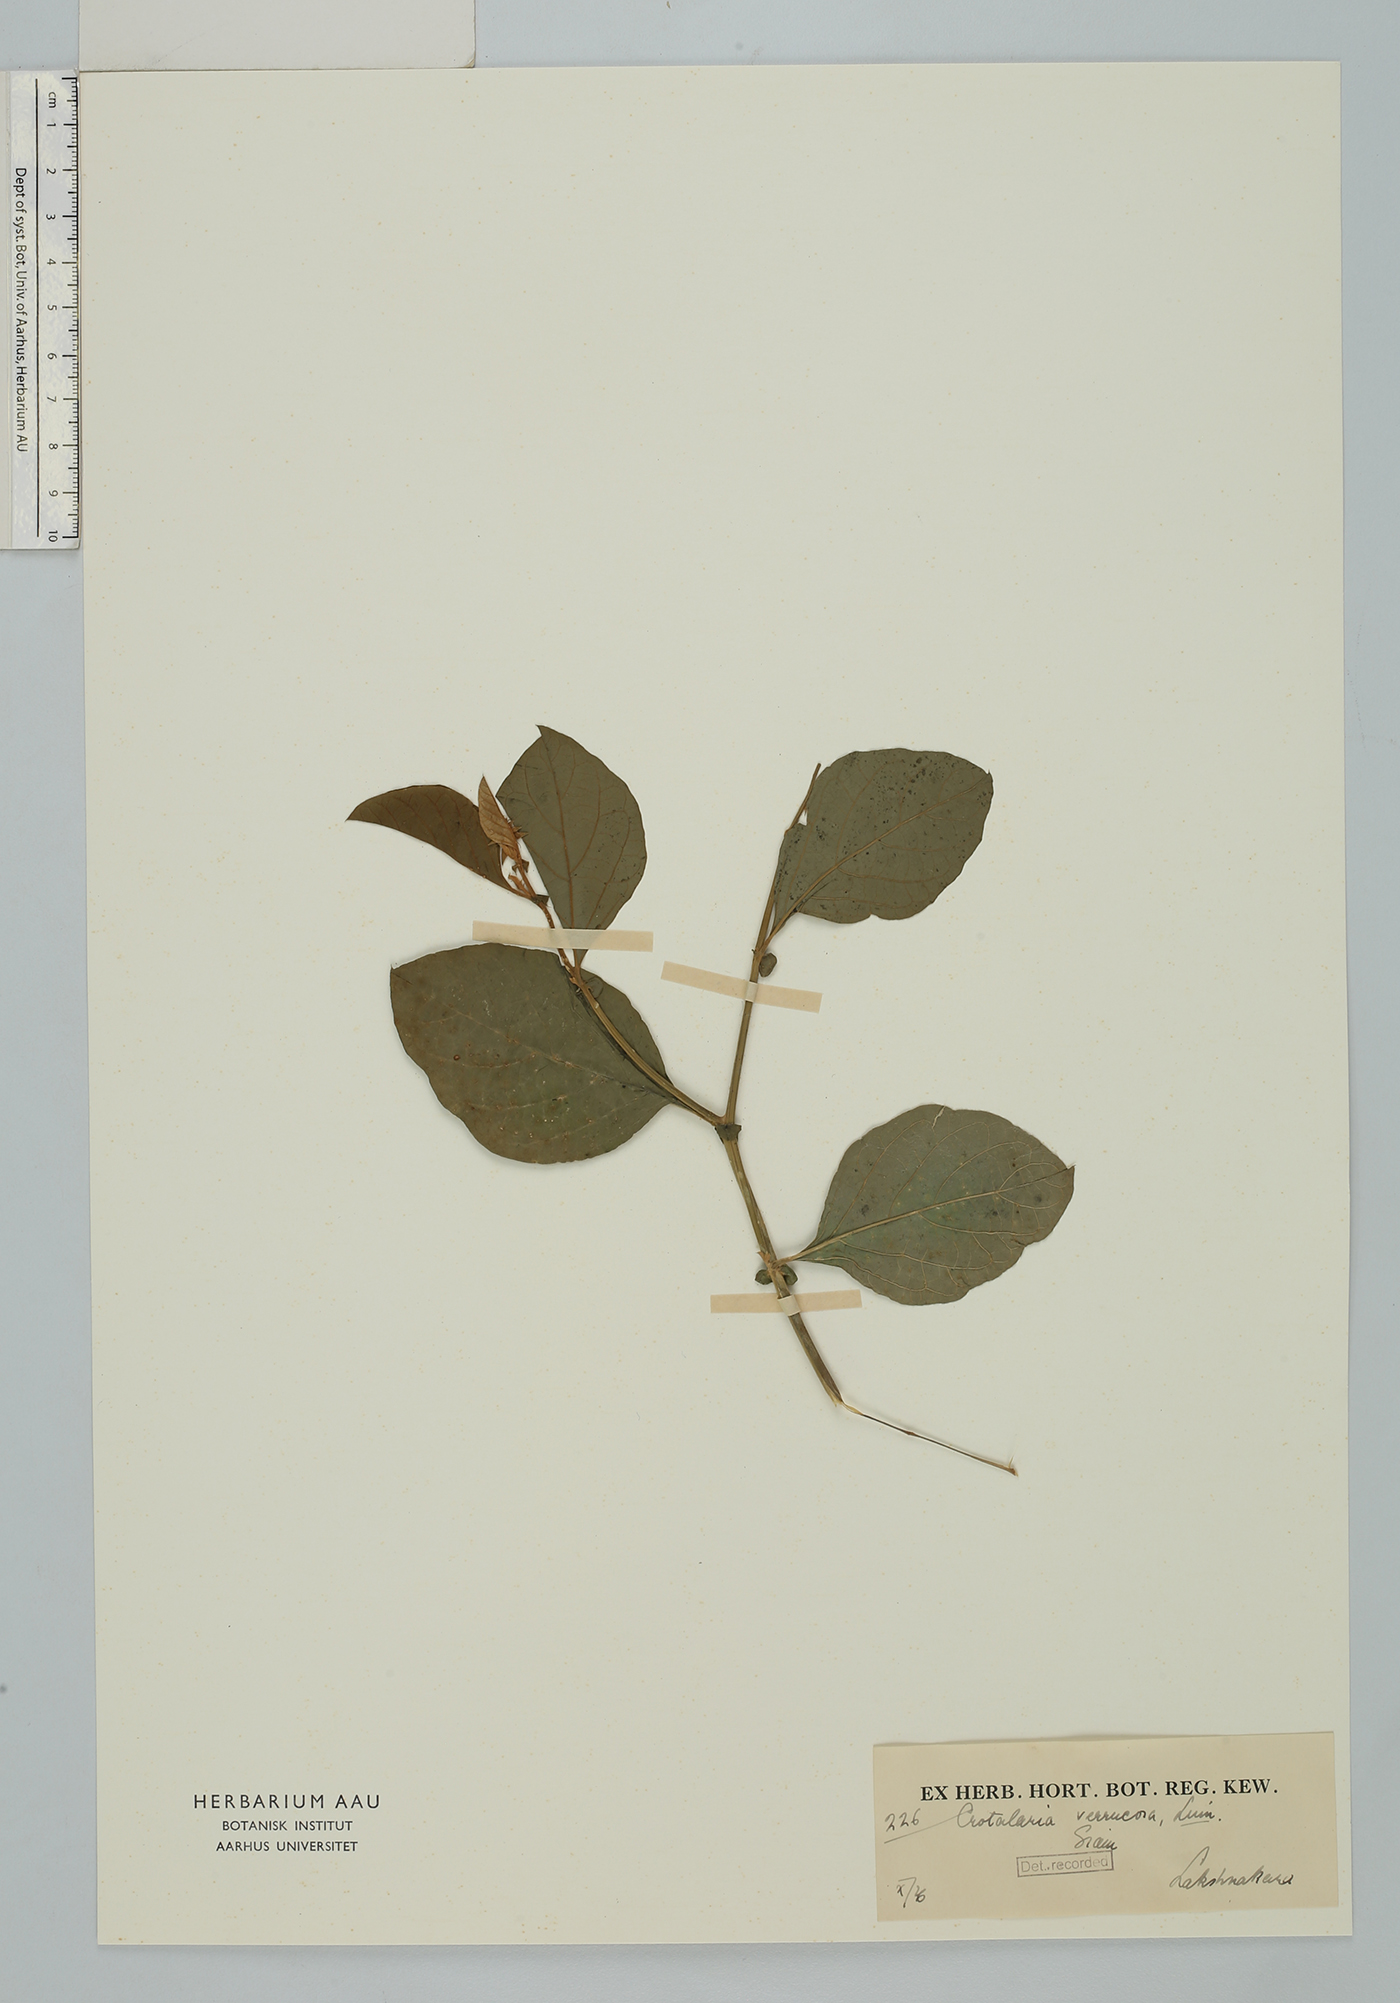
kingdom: Plantae
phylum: Tracheophyta
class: Magnoliopsida
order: Fabales
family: Fabaceae
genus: Crotalaria
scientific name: Crotalaria verrucosa
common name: Blue rattlesnake
